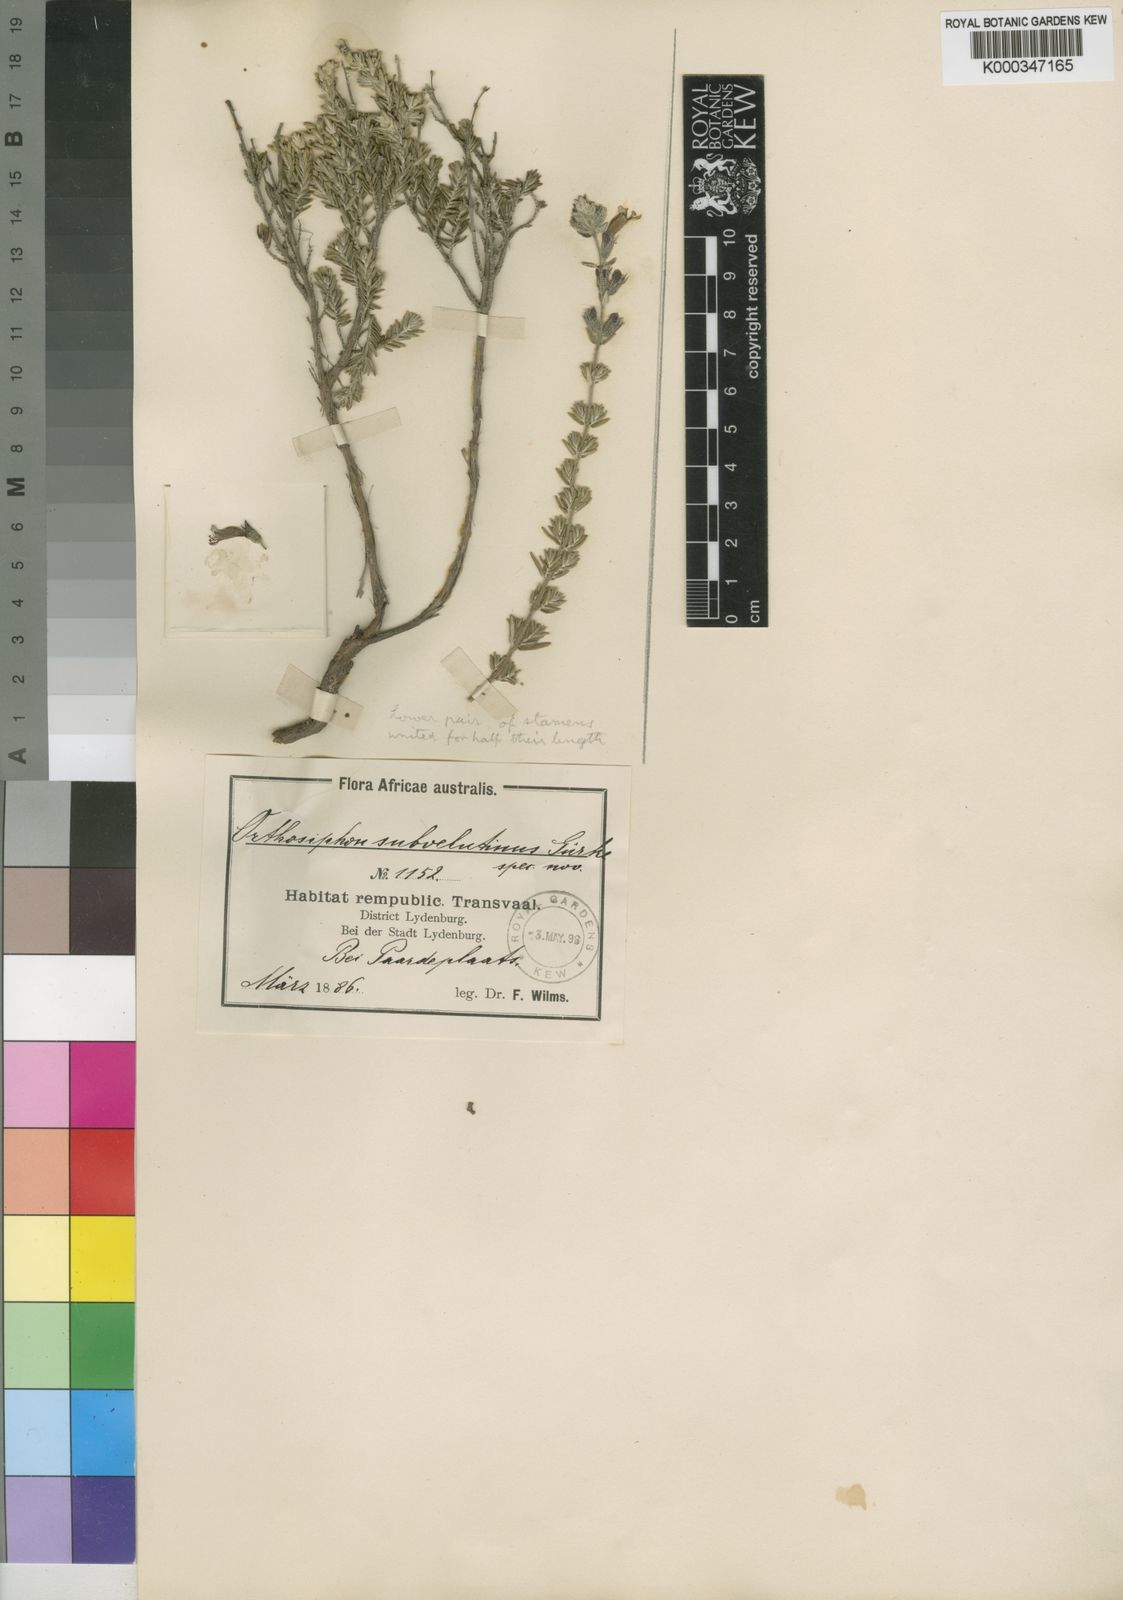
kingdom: Plantae
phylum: Tracheophyta
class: Magnoliopsida
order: Lamiales
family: Lamiaceae
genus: Syncolostemon
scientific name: Syncolostemon
